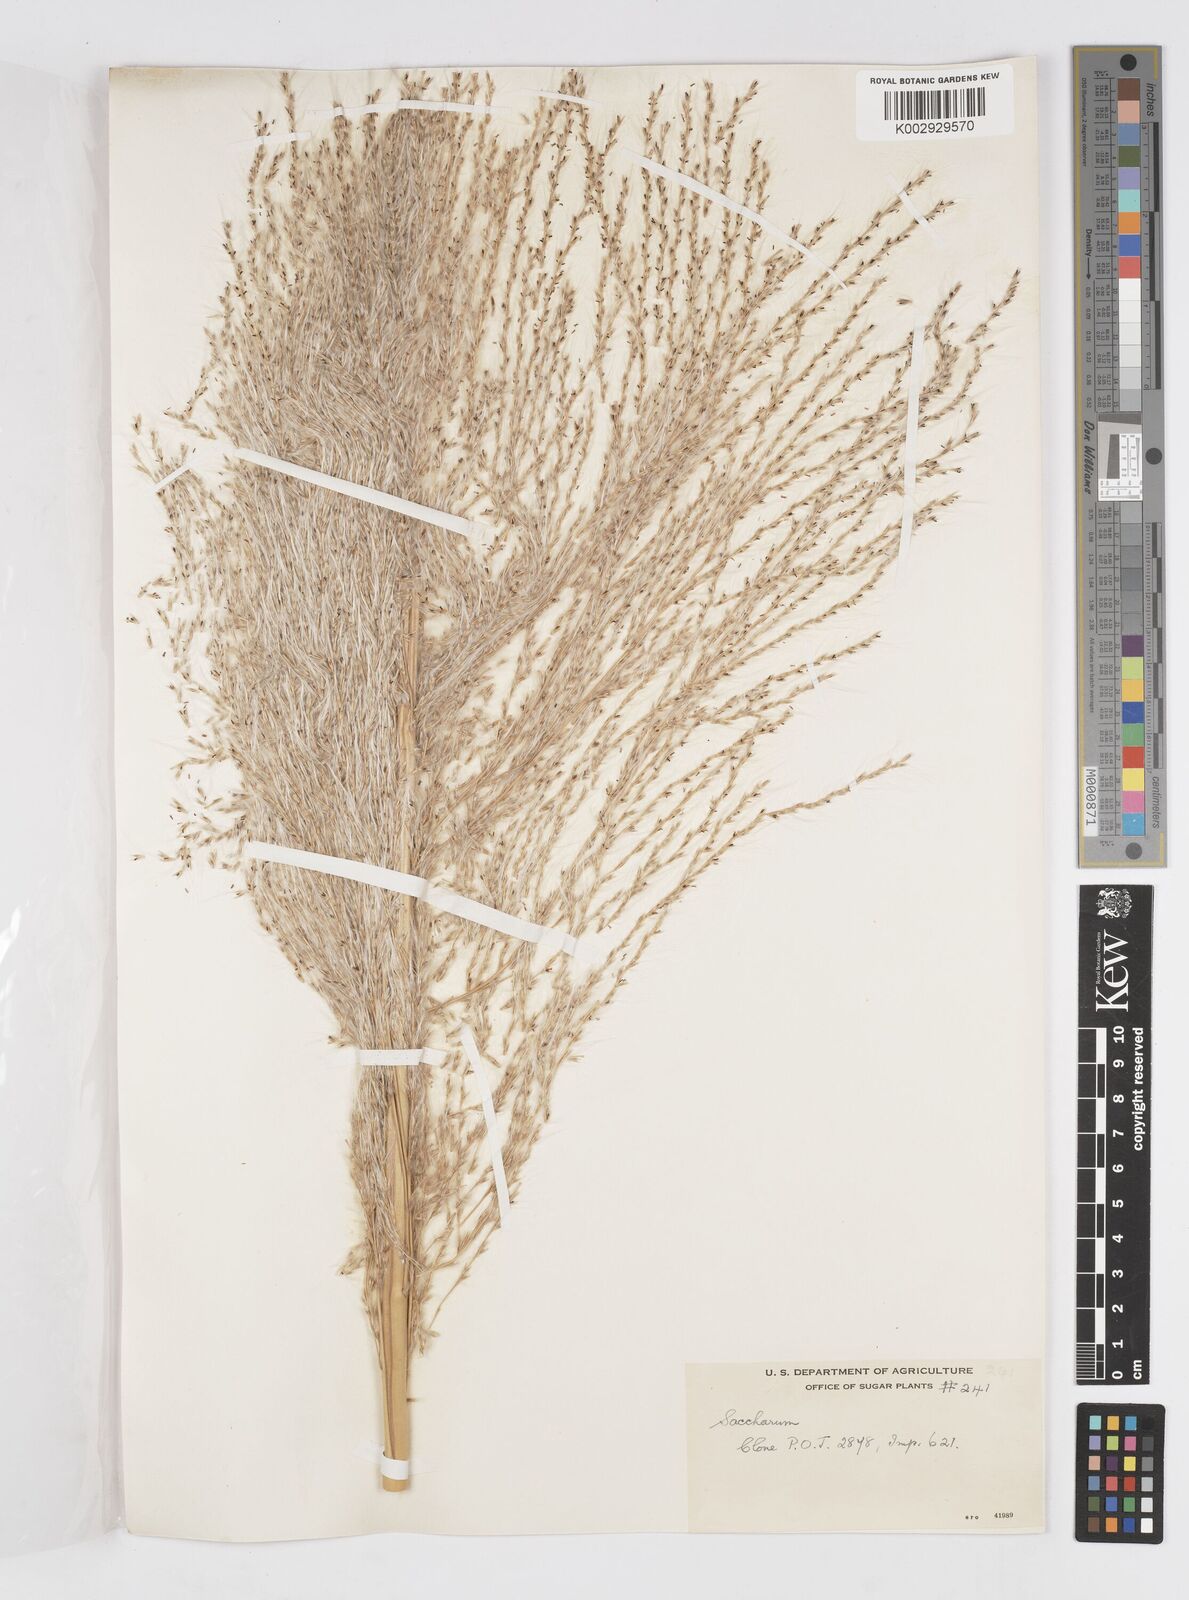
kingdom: Plantae
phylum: Tracheophyta
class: Liliopsida
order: Poales
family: Poaceae
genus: Saccharum
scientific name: Saccharum officinarum
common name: Sugarcane
